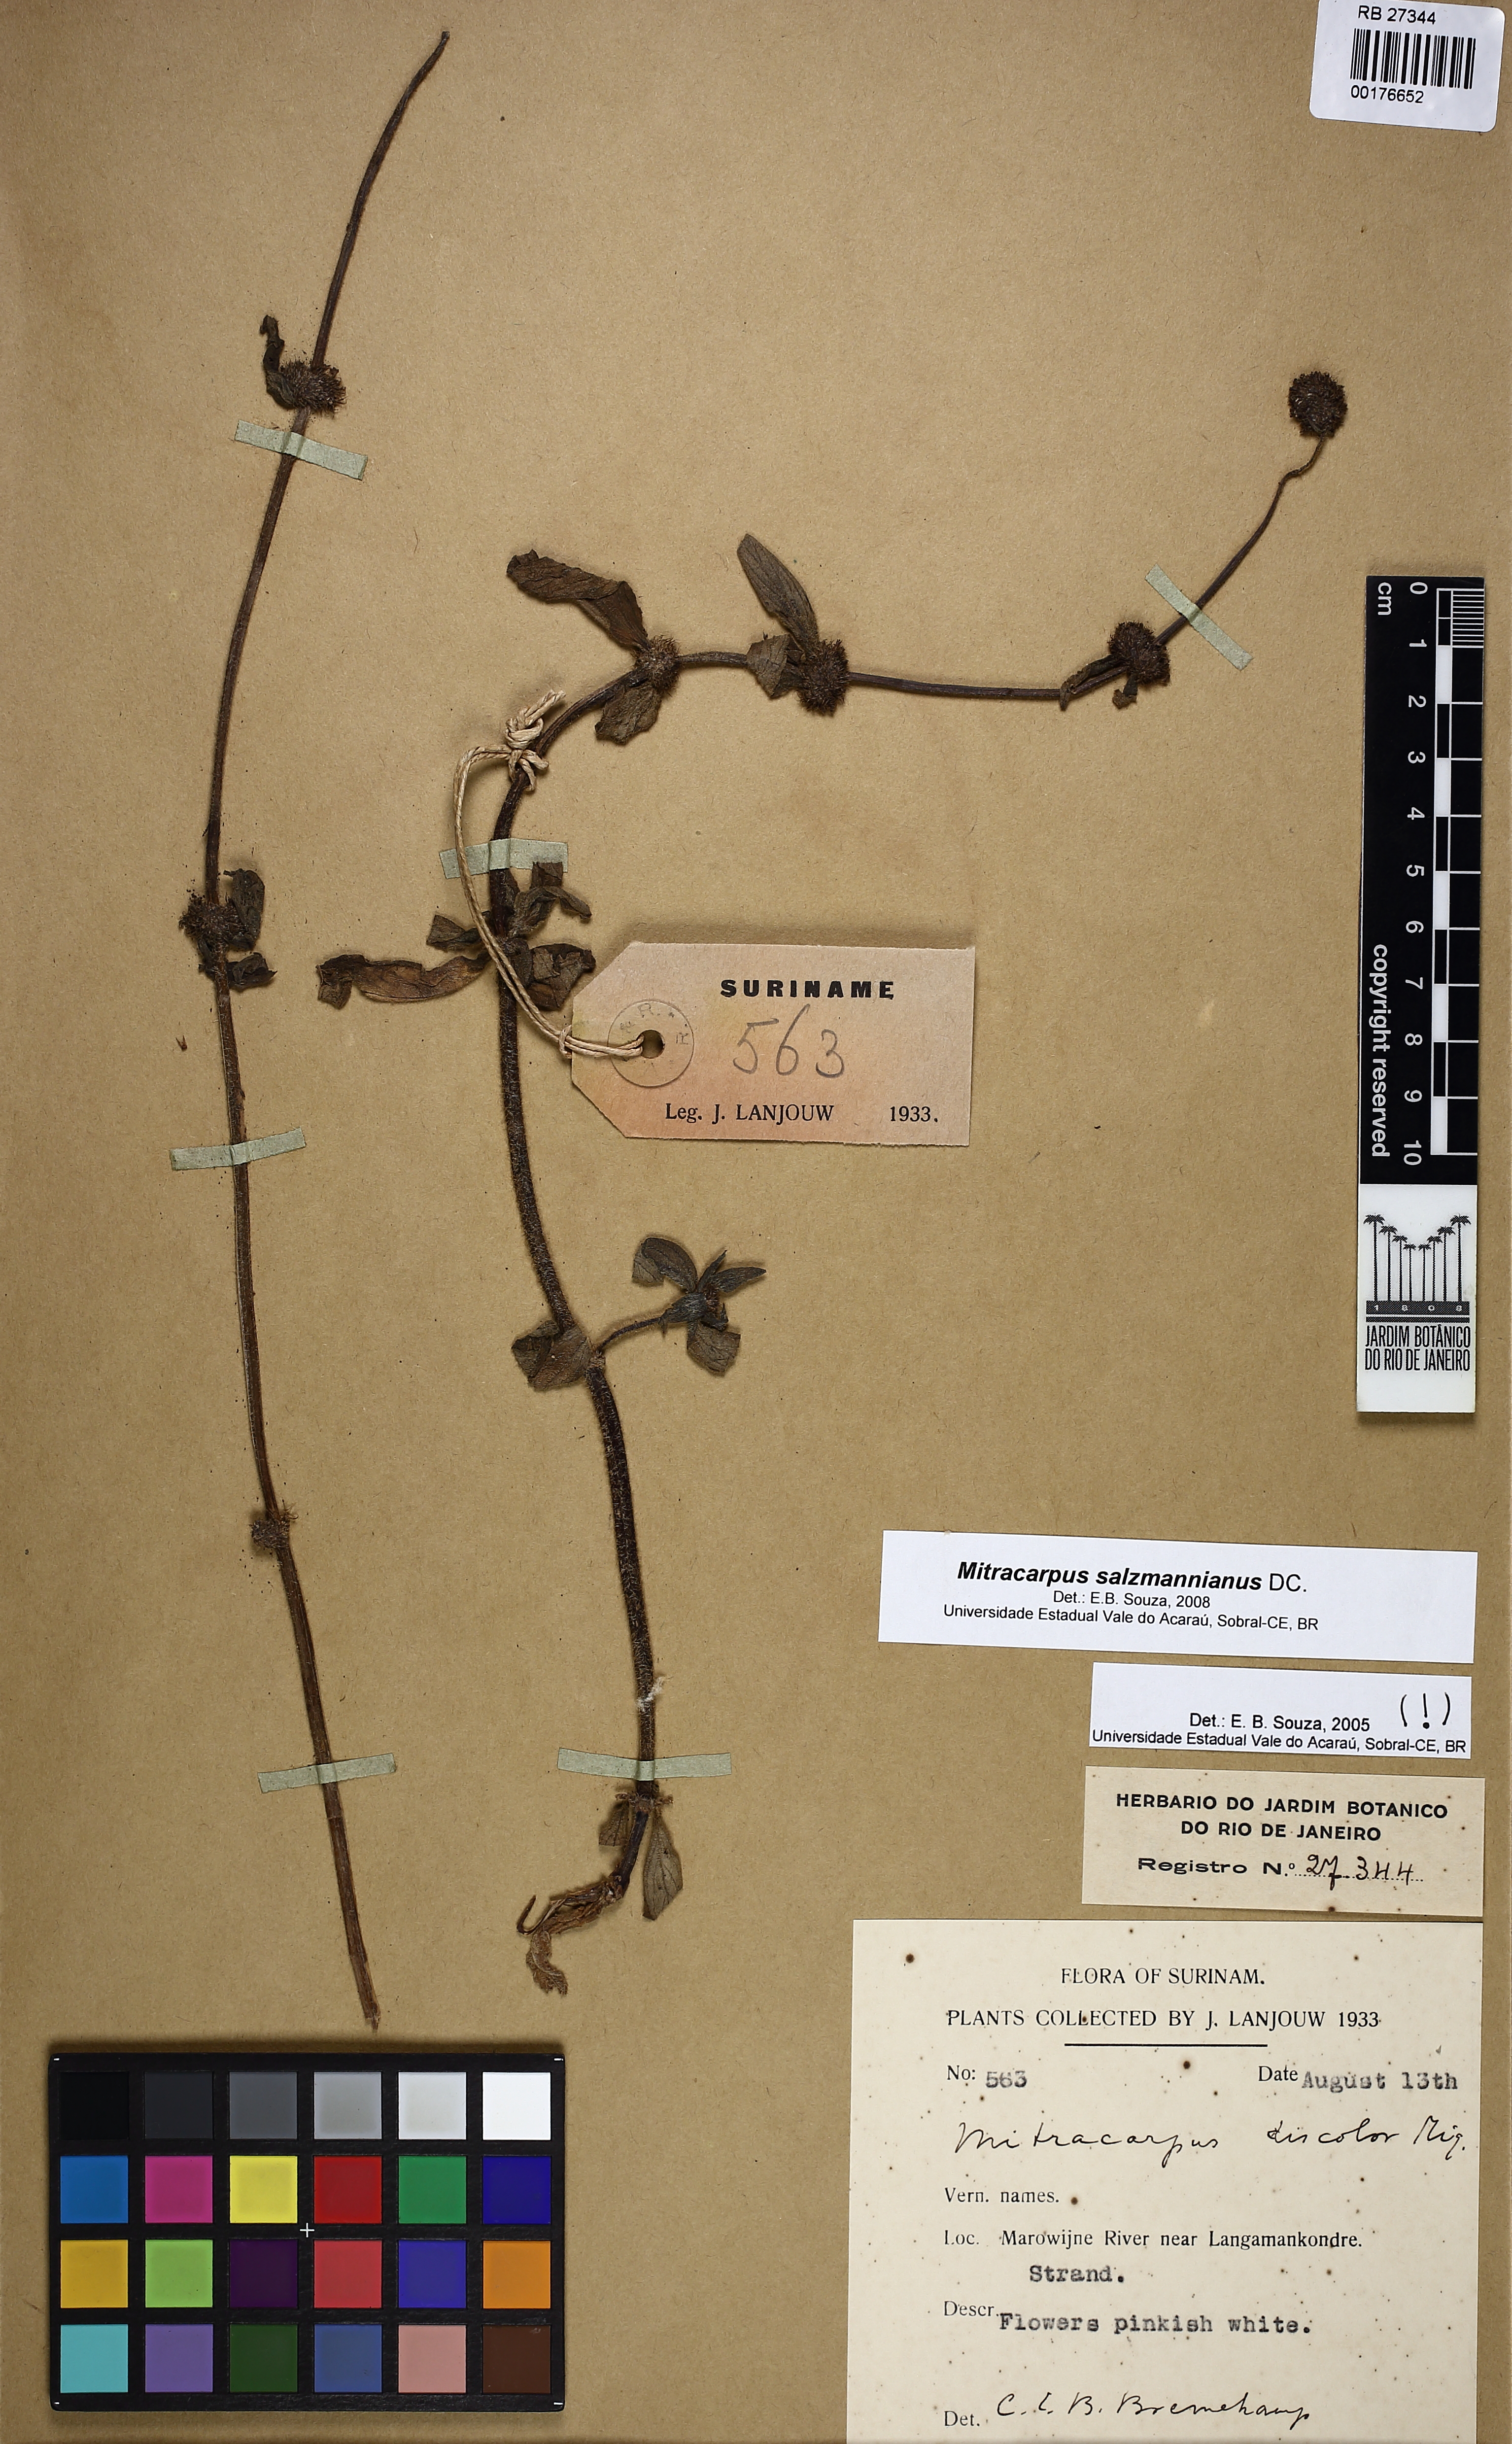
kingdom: Plantae
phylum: Tracheophyta
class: Magnoliopsida
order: Gentianales
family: Rubiaceae
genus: Mitracarpus
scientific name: Mitracarpus salzmannianus
